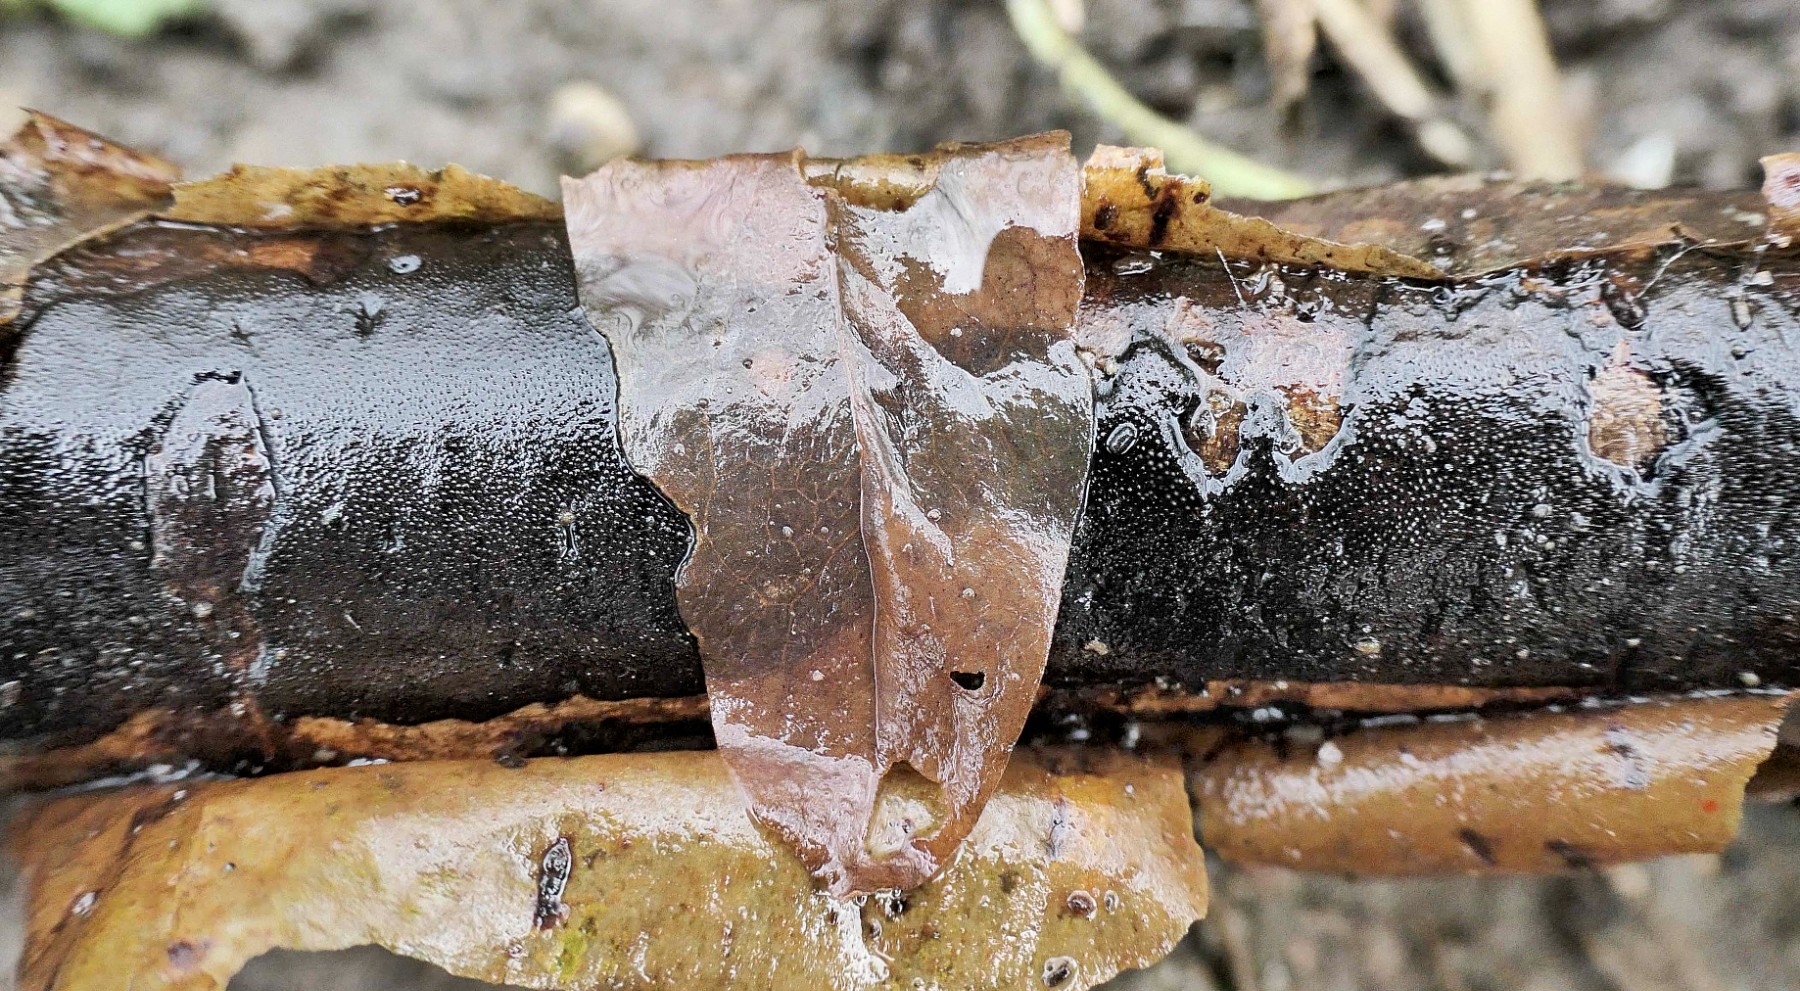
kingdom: Fungi
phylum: Ascomycota
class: Sordariomycetes
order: Xylariales
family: Diatrypaceae
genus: Diatrype
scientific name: Diatrype decorticata
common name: barksprænger-kulskorpe
